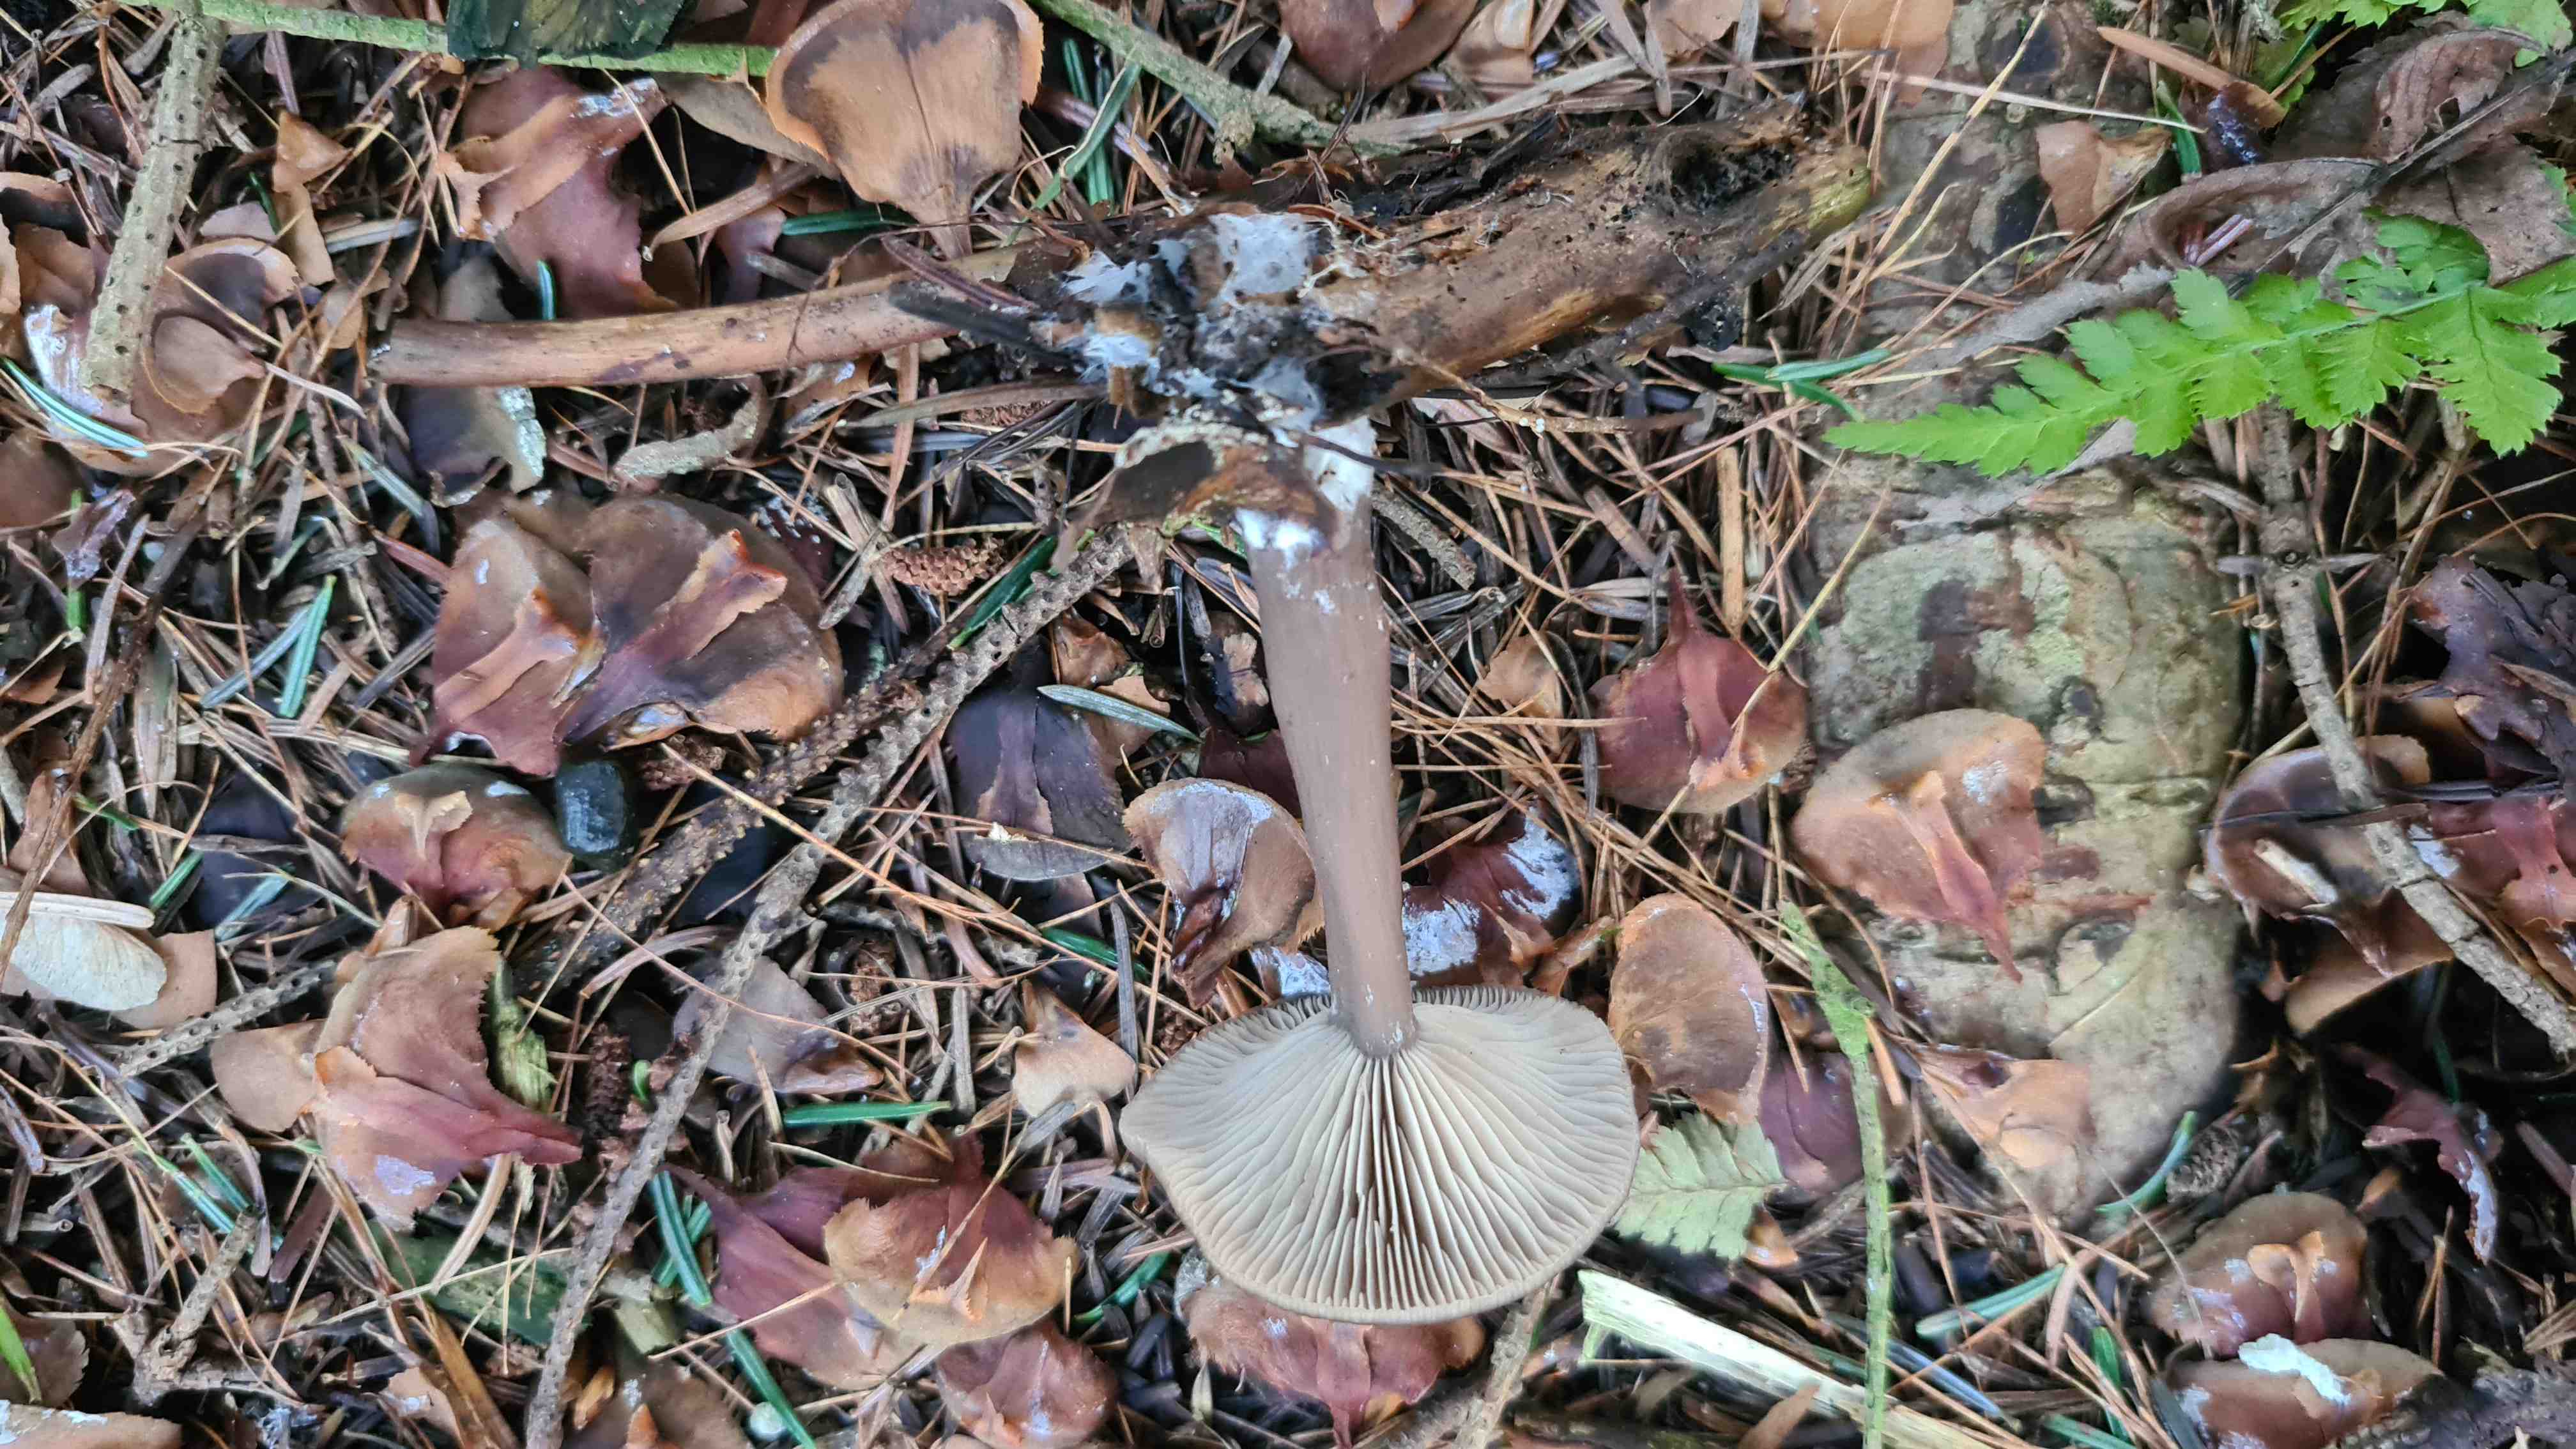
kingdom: Fungi
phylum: Basidiomycota
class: Agaricomycetes
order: Agaricales
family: Pseudoclitocybaceae
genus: Pseudoclitocybe
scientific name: Pseudoclitocybe cyathiformis
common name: almindelig bægertragthat
